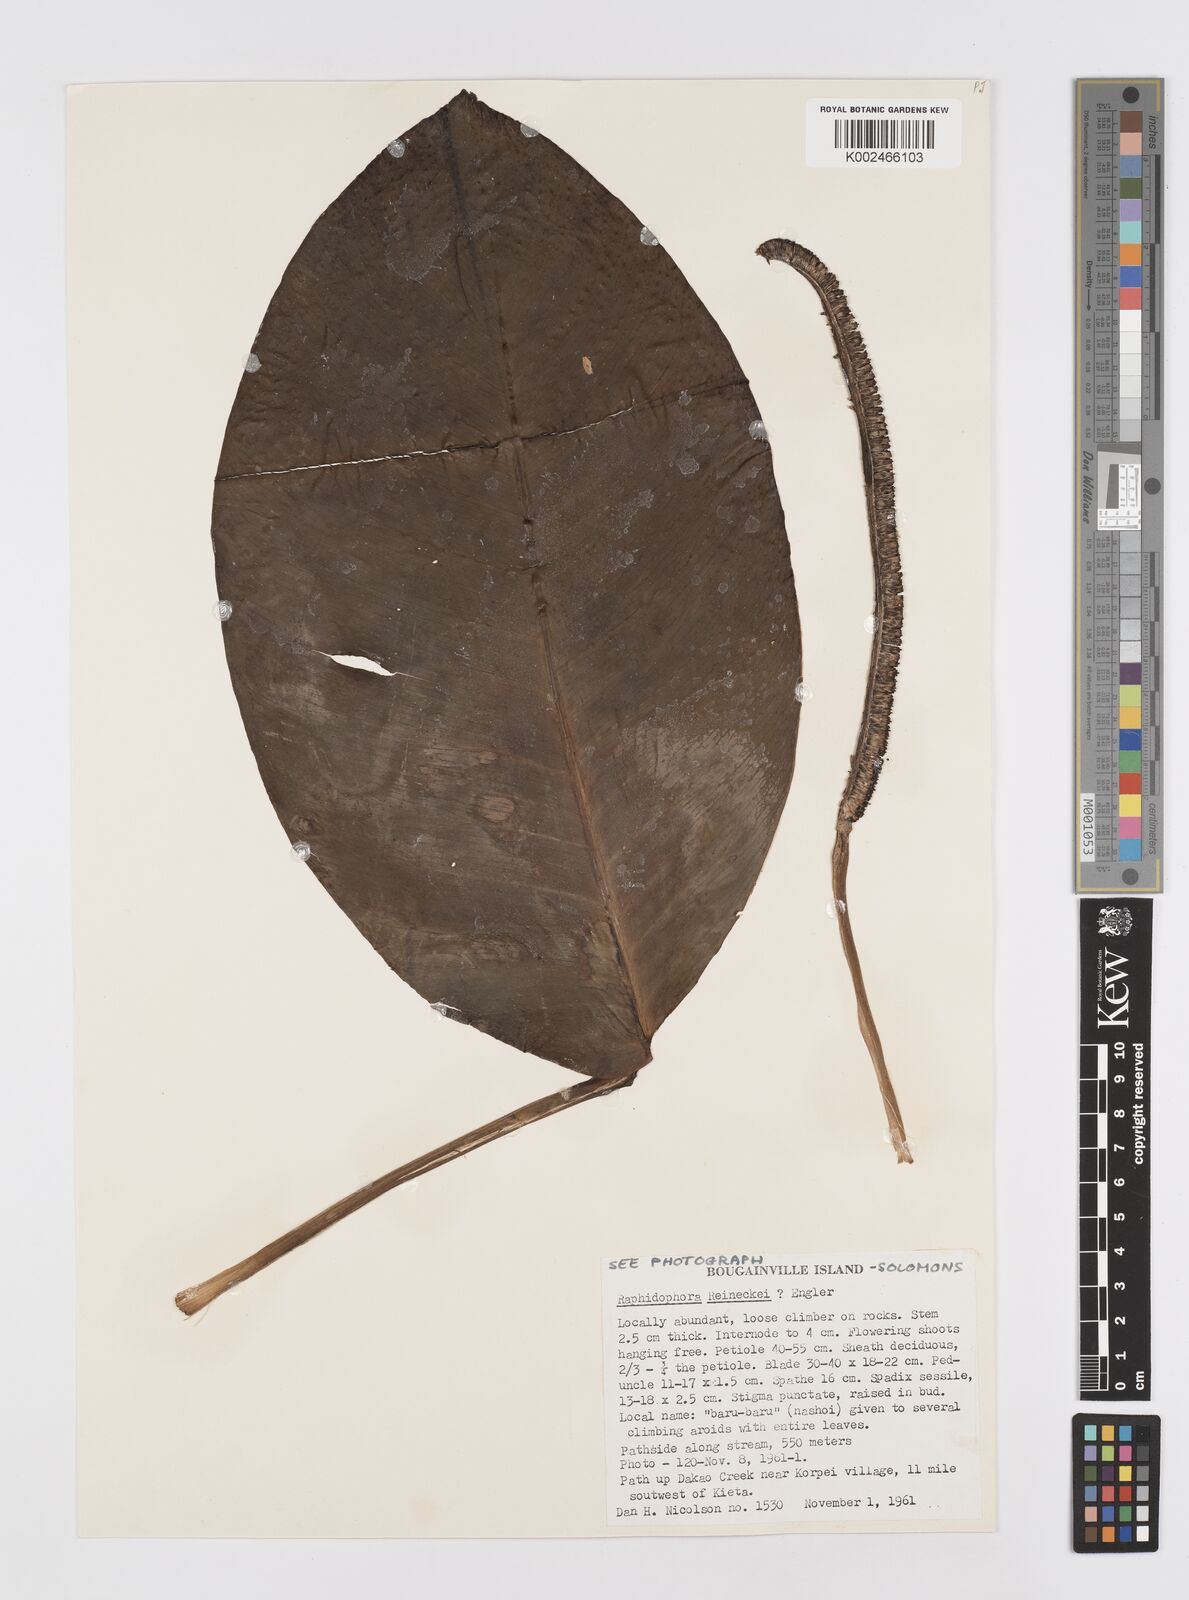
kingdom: Plantae
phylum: Tracheophyta
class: Liliopsida
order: Alismatales
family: Araceae
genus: Rhaphidophora
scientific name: Rhaphidophora jubata
